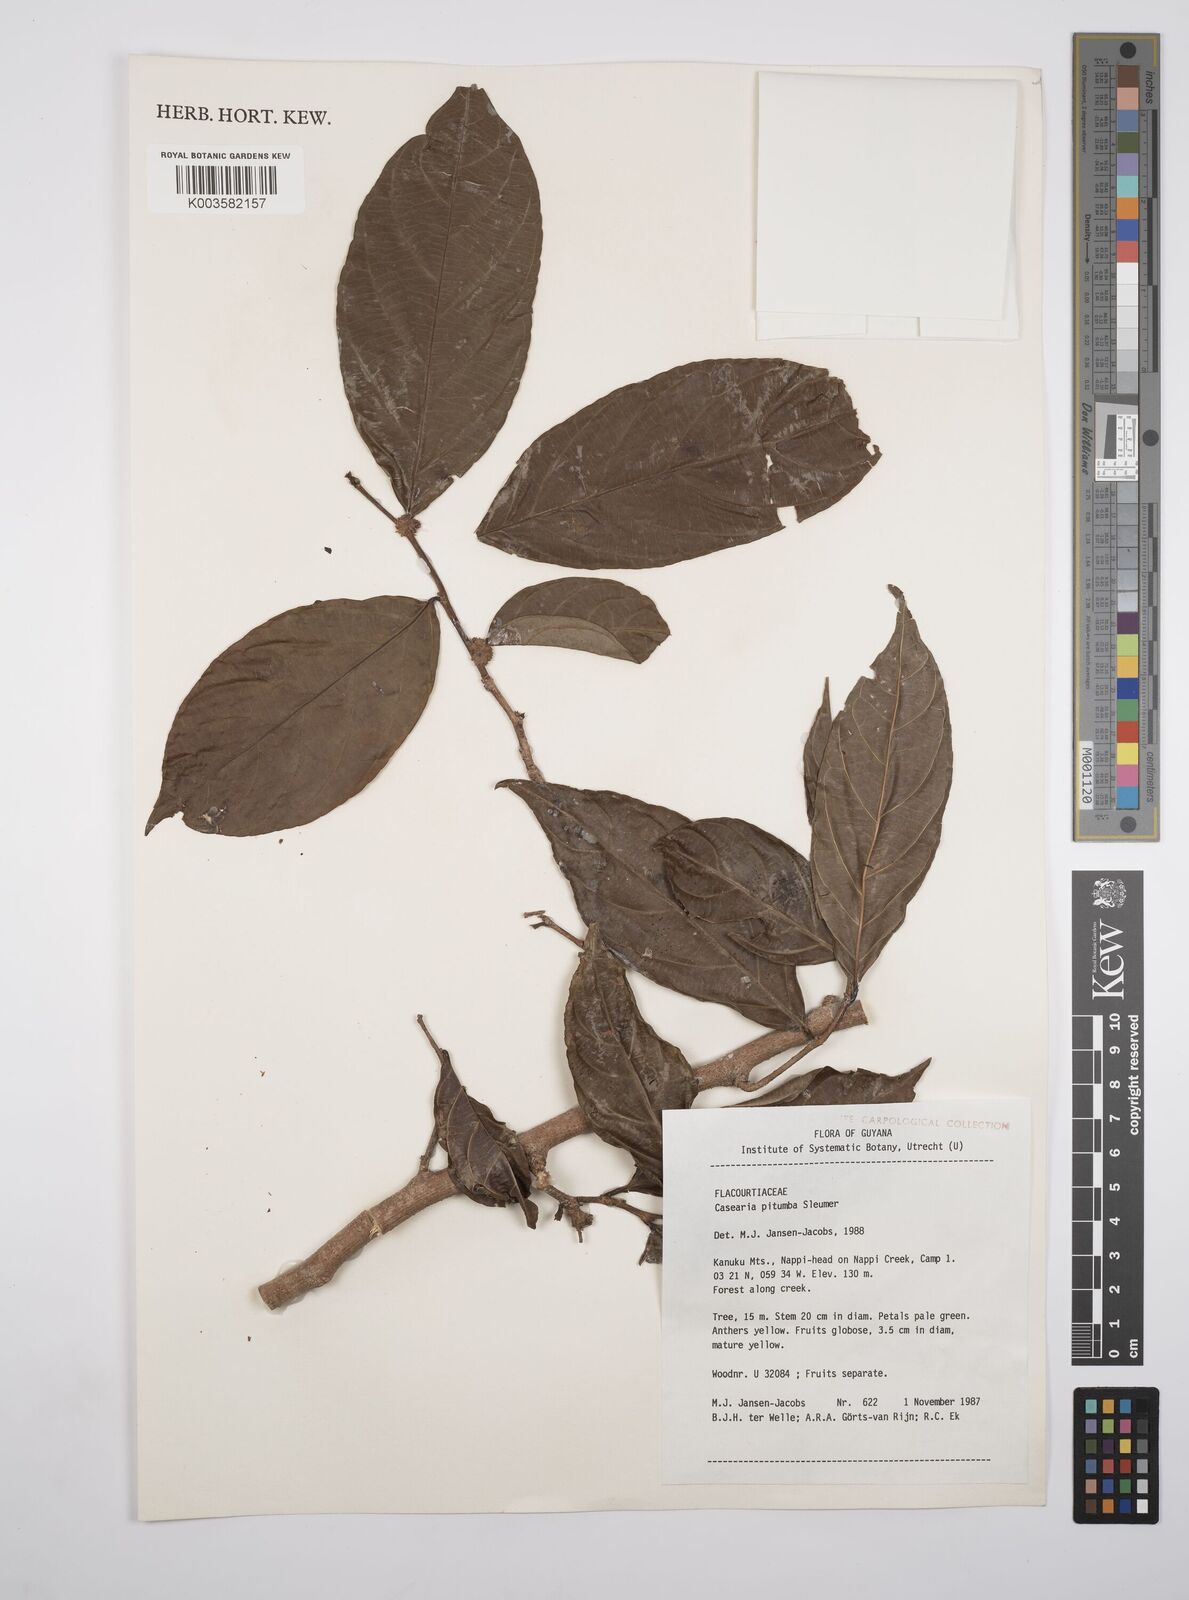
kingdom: Plantae
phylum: Tracheophyta
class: Magnoliopsida
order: Malpighiales
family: Salicaceae
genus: Casearia
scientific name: Casearia pitumba
